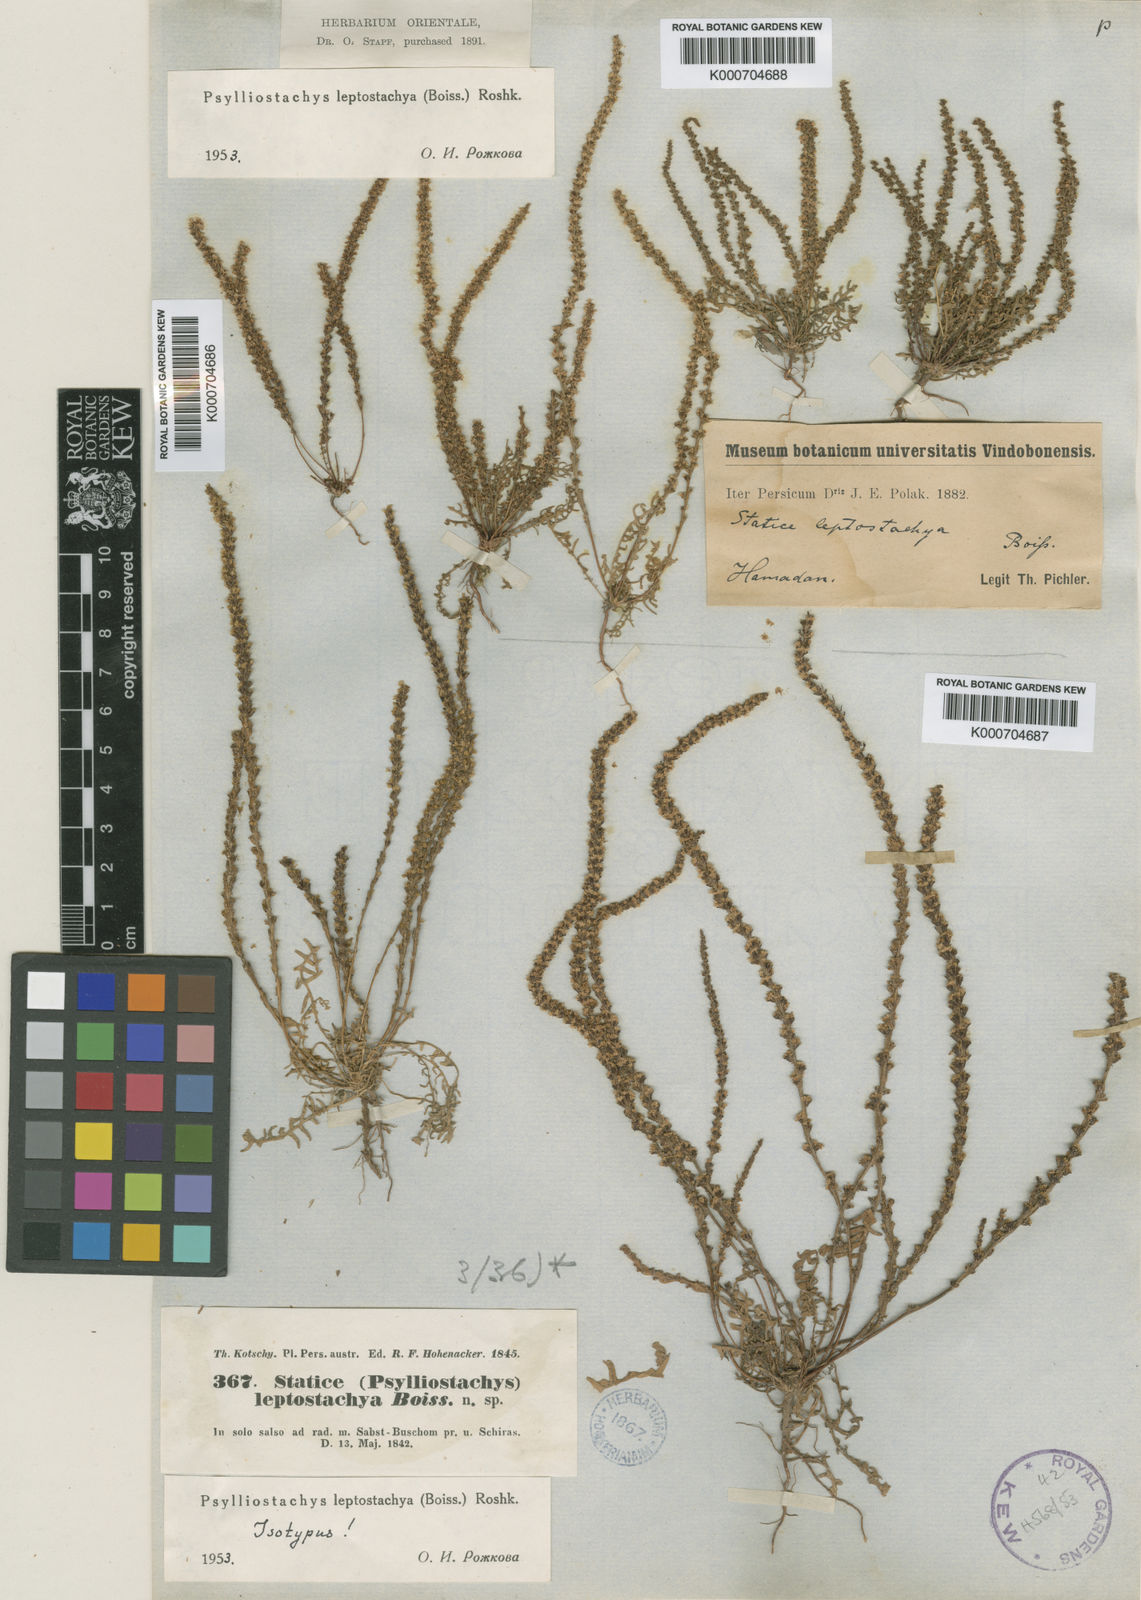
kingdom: Plantae
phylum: Tracheophyta
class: Magnoliopsida
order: Caryophyllales
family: Plumbaginaceae
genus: Psylliostachys
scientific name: Psylliostachys leptostachyus
